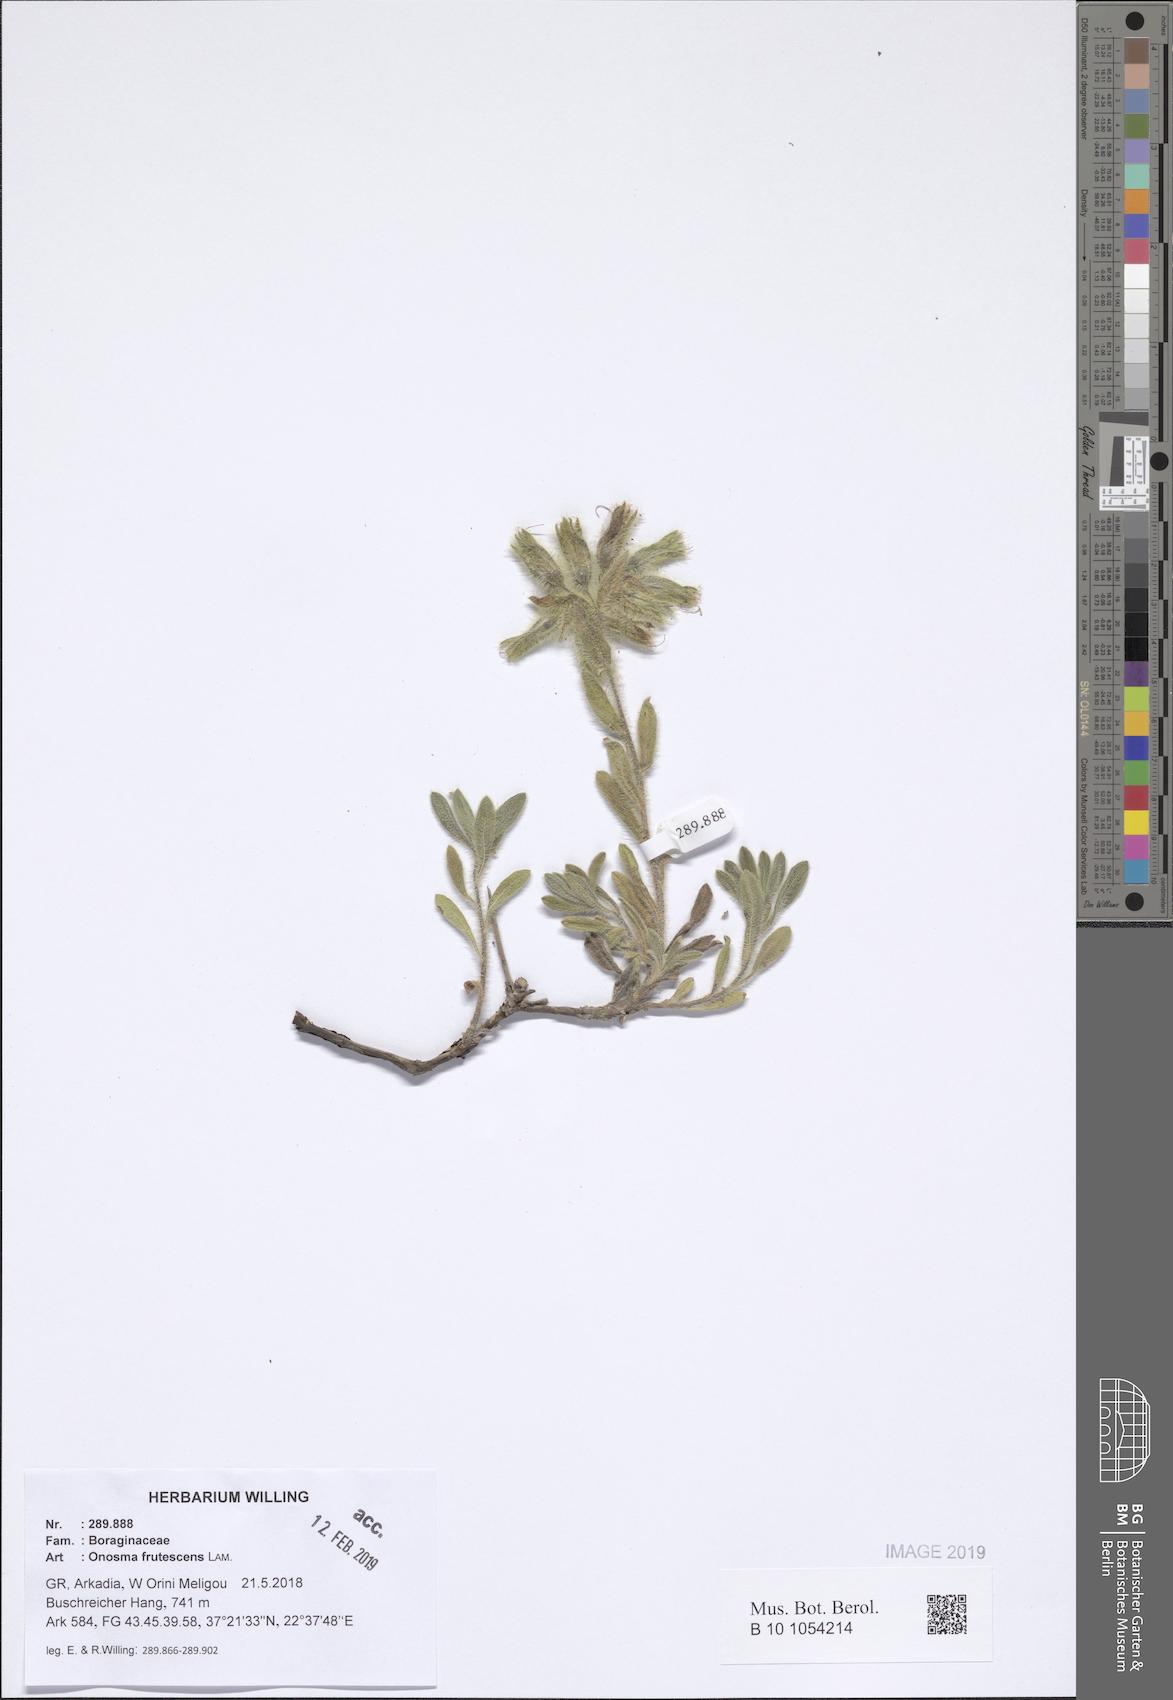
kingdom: Plantae
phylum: Tracheophyta
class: Magnoliopsida
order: Boraginales
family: Boraginaceae
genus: Onosma
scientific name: Onosma frutescens
